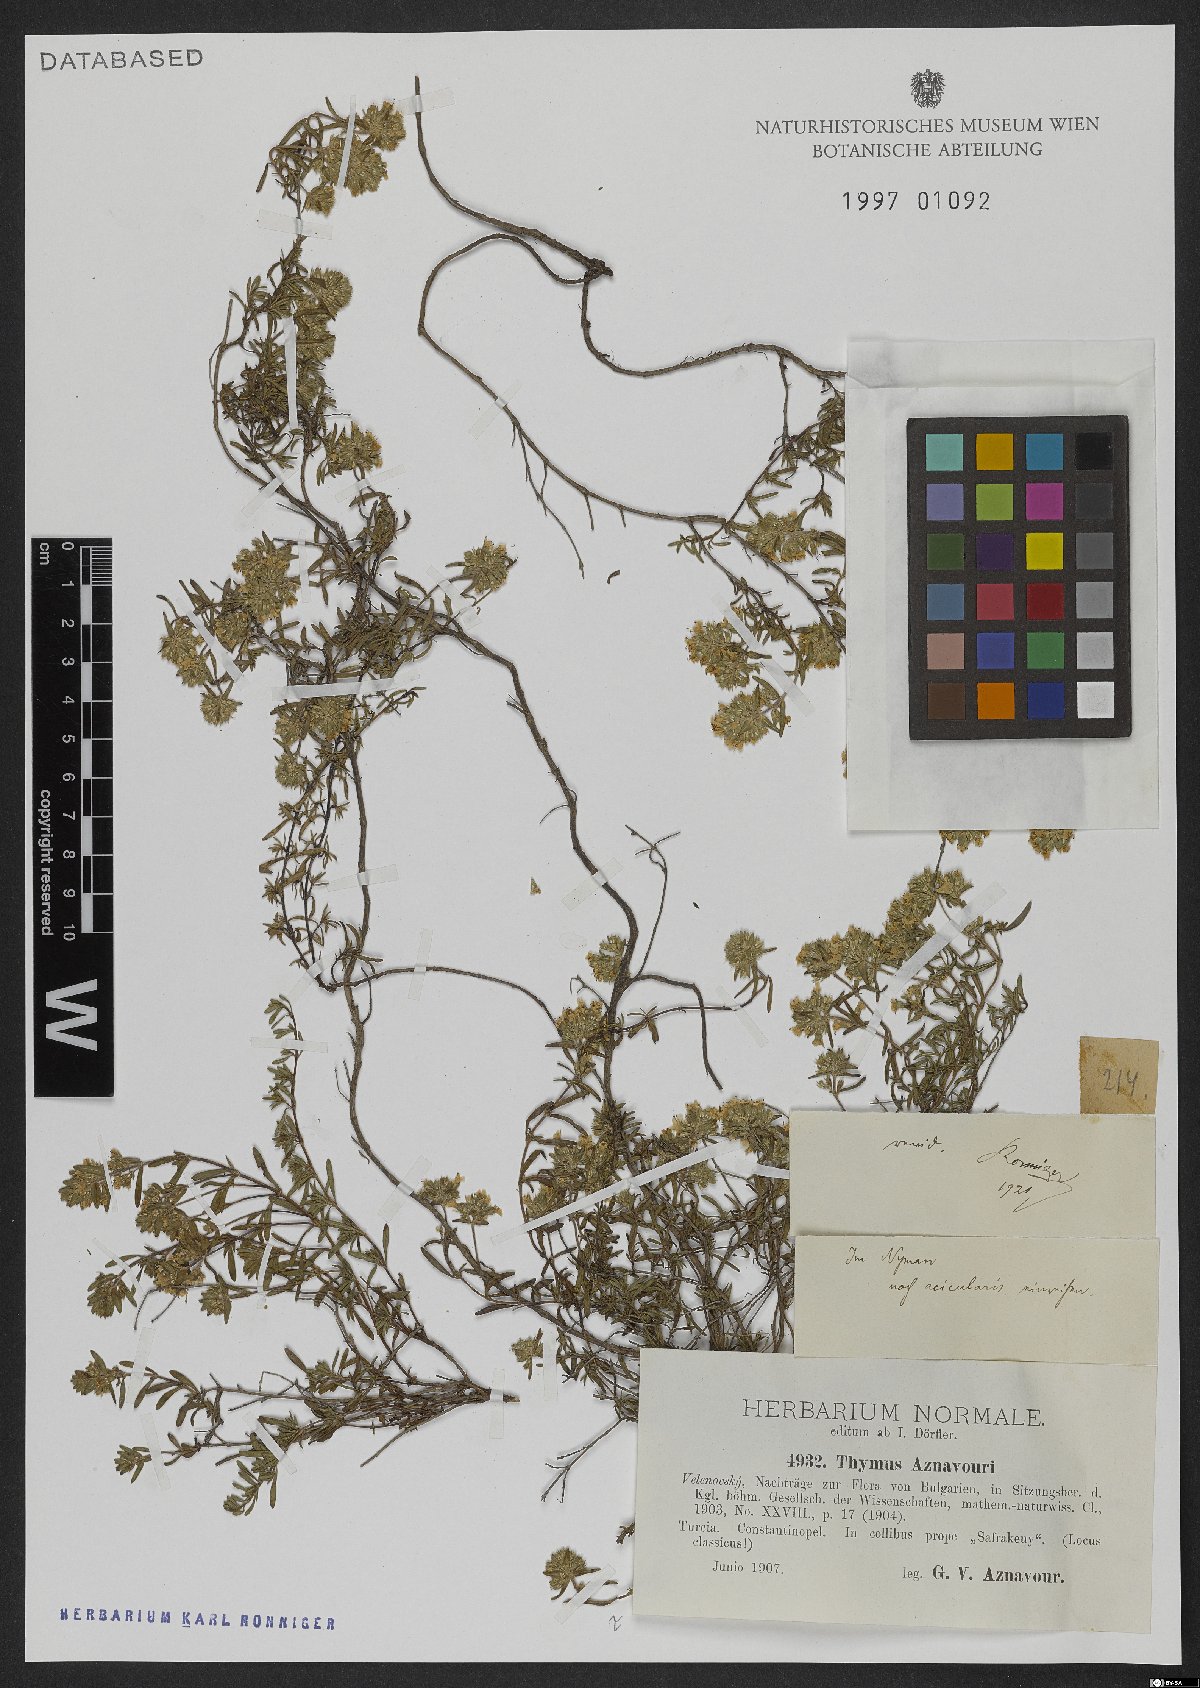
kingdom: Plantae
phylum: Tracheophyta
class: Magnoliopsida
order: Lamiales
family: Lamiaceae
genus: Thymus
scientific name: Thymus aznavourii
